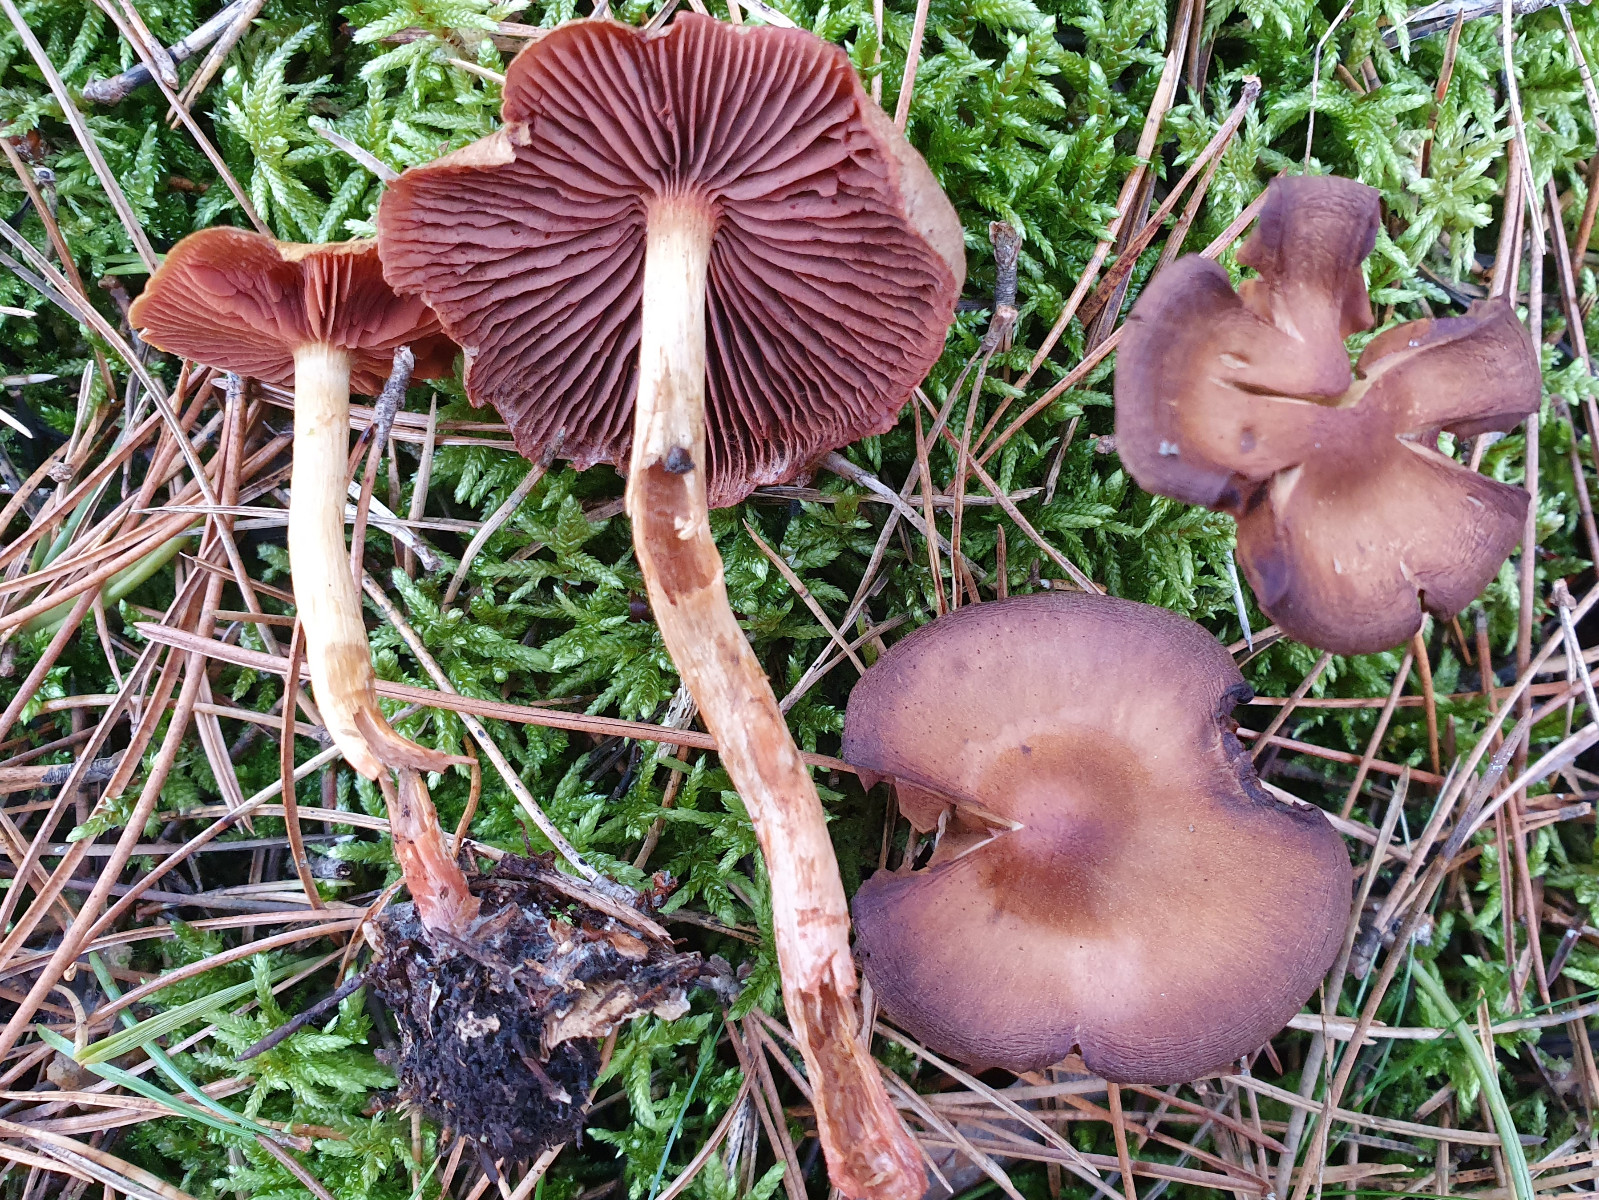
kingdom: Fungi
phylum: Basidiomycota
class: Agaricomycetes
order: Agaricales
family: Cortinariaceae
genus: Cortinarius
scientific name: Cortinarius ominosus
